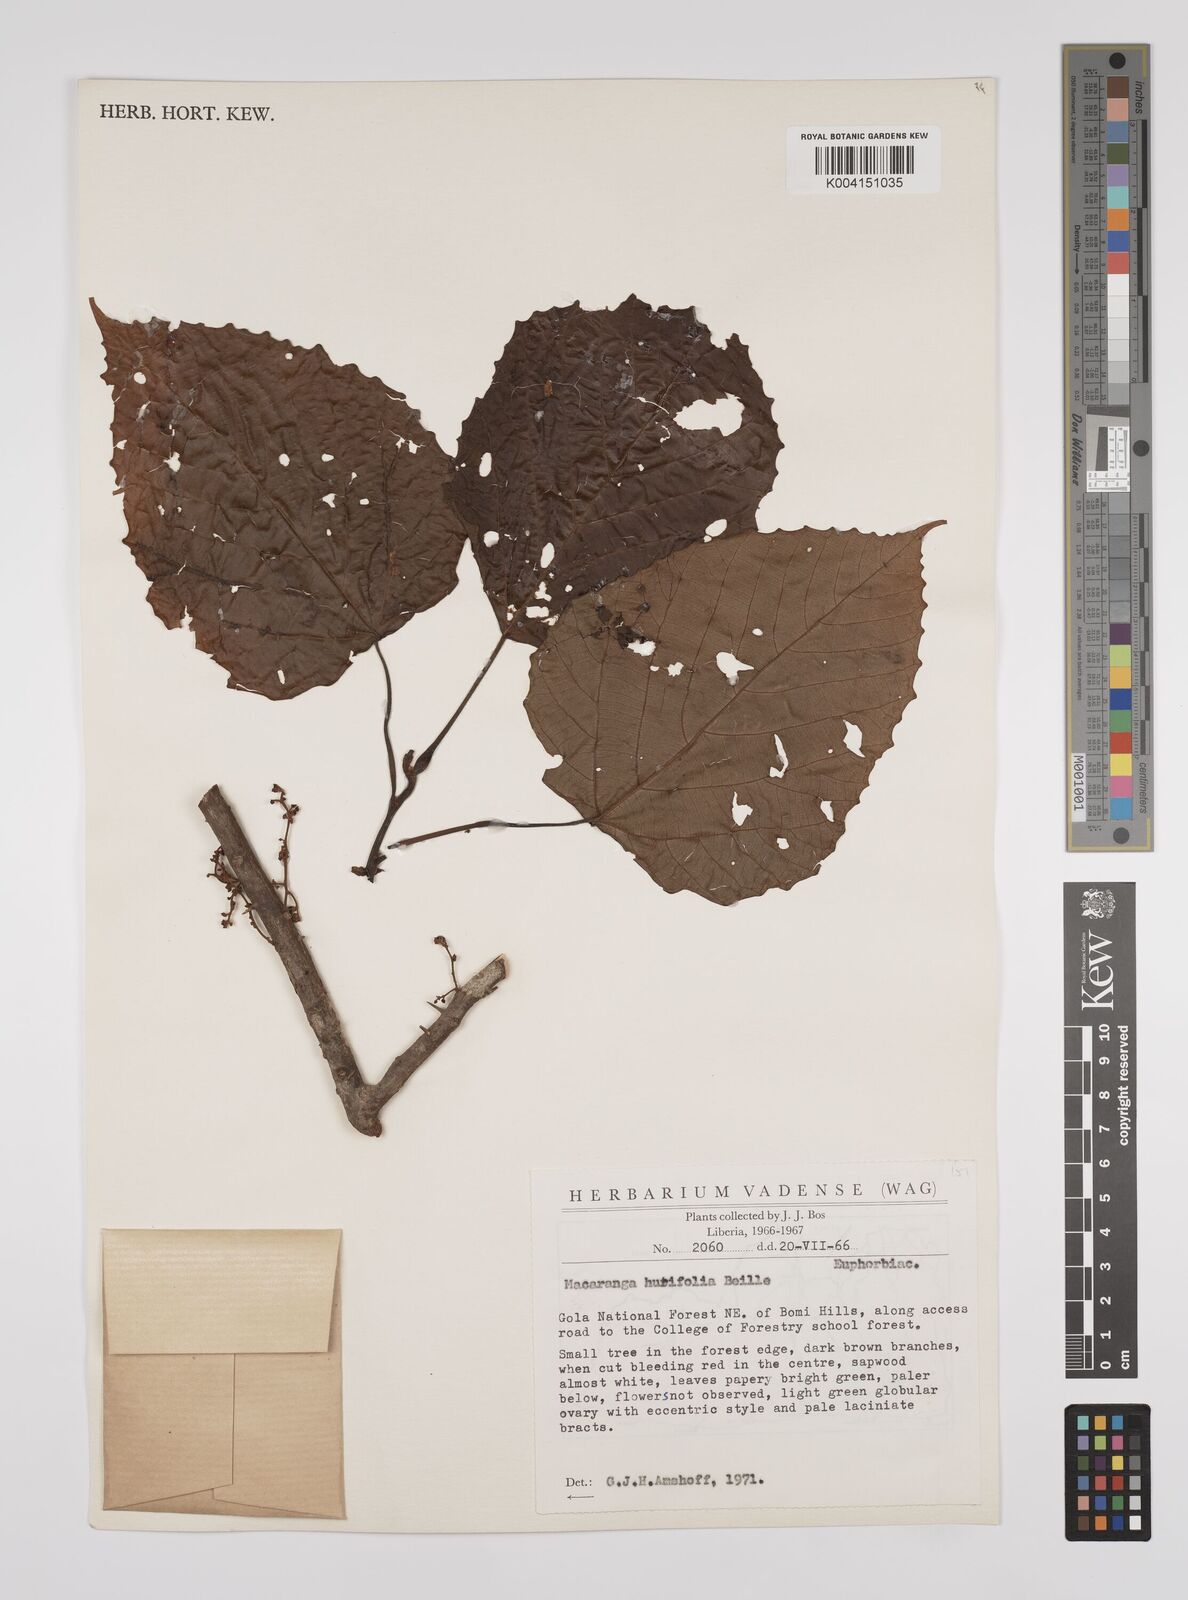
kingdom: Plantae
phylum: Tracheophyta
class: Magnoliopsida
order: Malpighiales
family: Euphorbiaceae
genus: Macaranga
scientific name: Macaranga hurifolia
